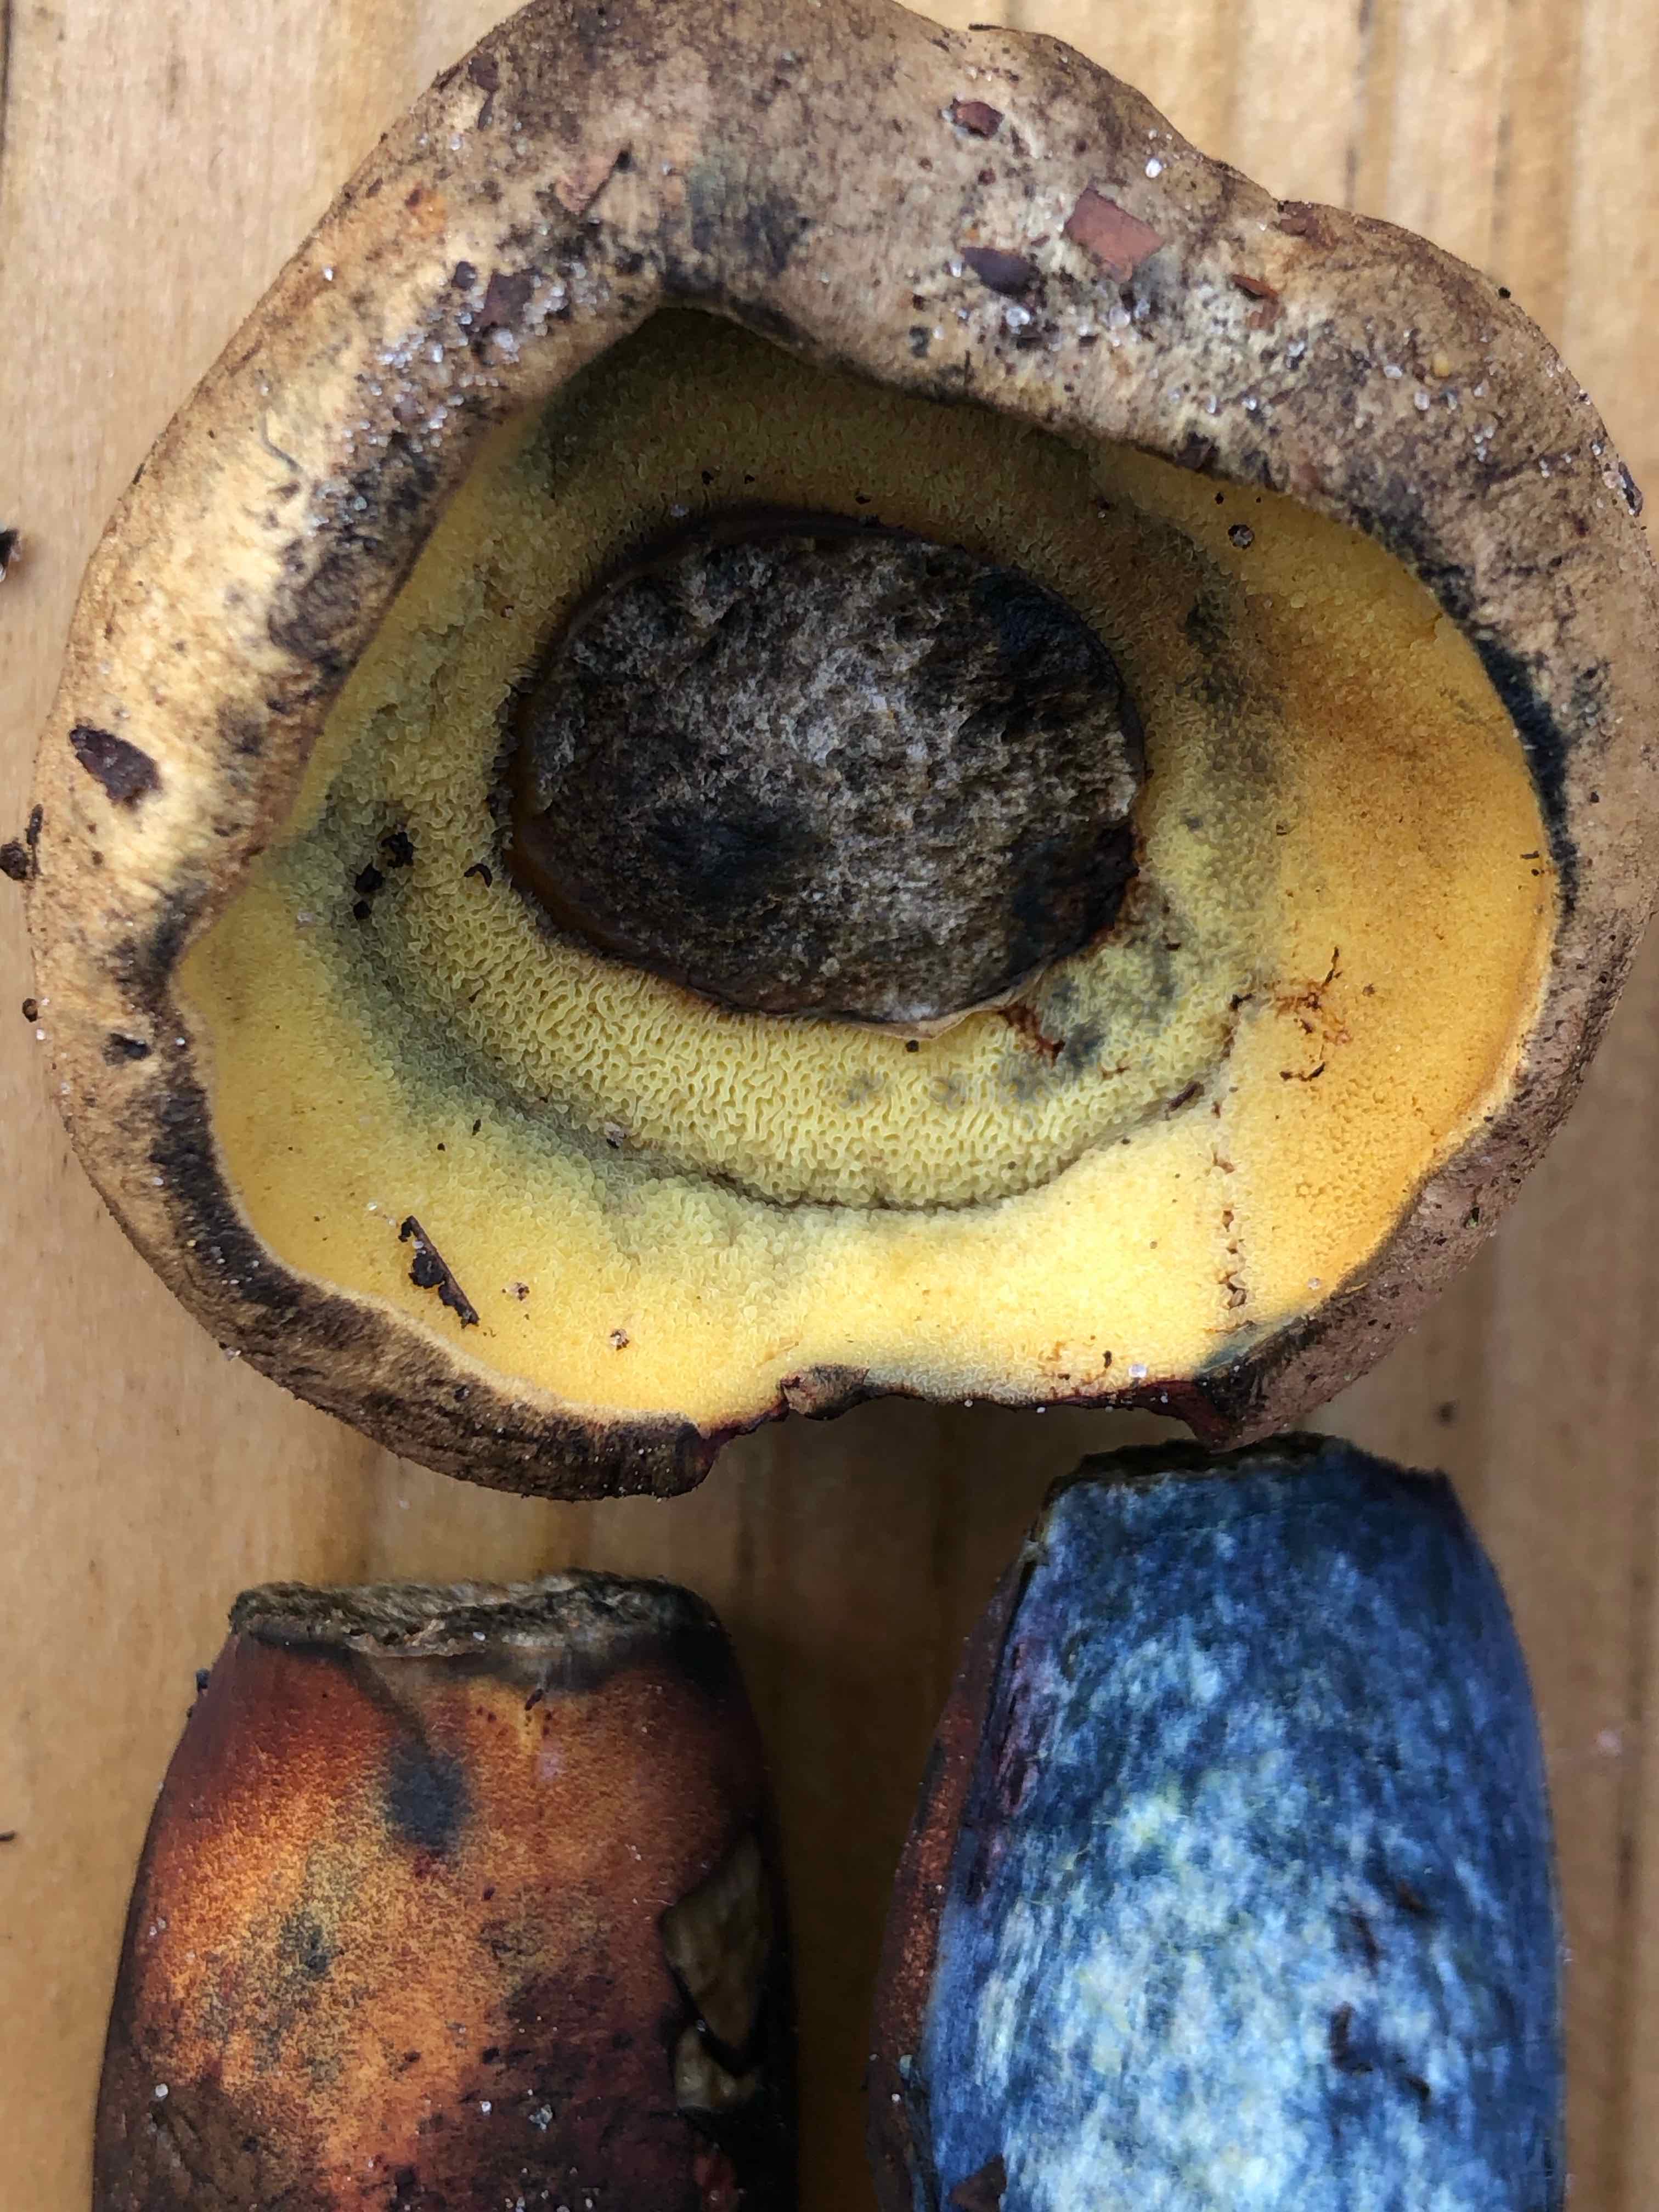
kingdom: Fungi
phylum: Basidiomycota
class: Agaricomycetes
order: Boletales
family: Boletaceae
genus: Cyanoboletus
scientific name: Cyanoboletus pulverulentus
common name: sortblånende rørhat
